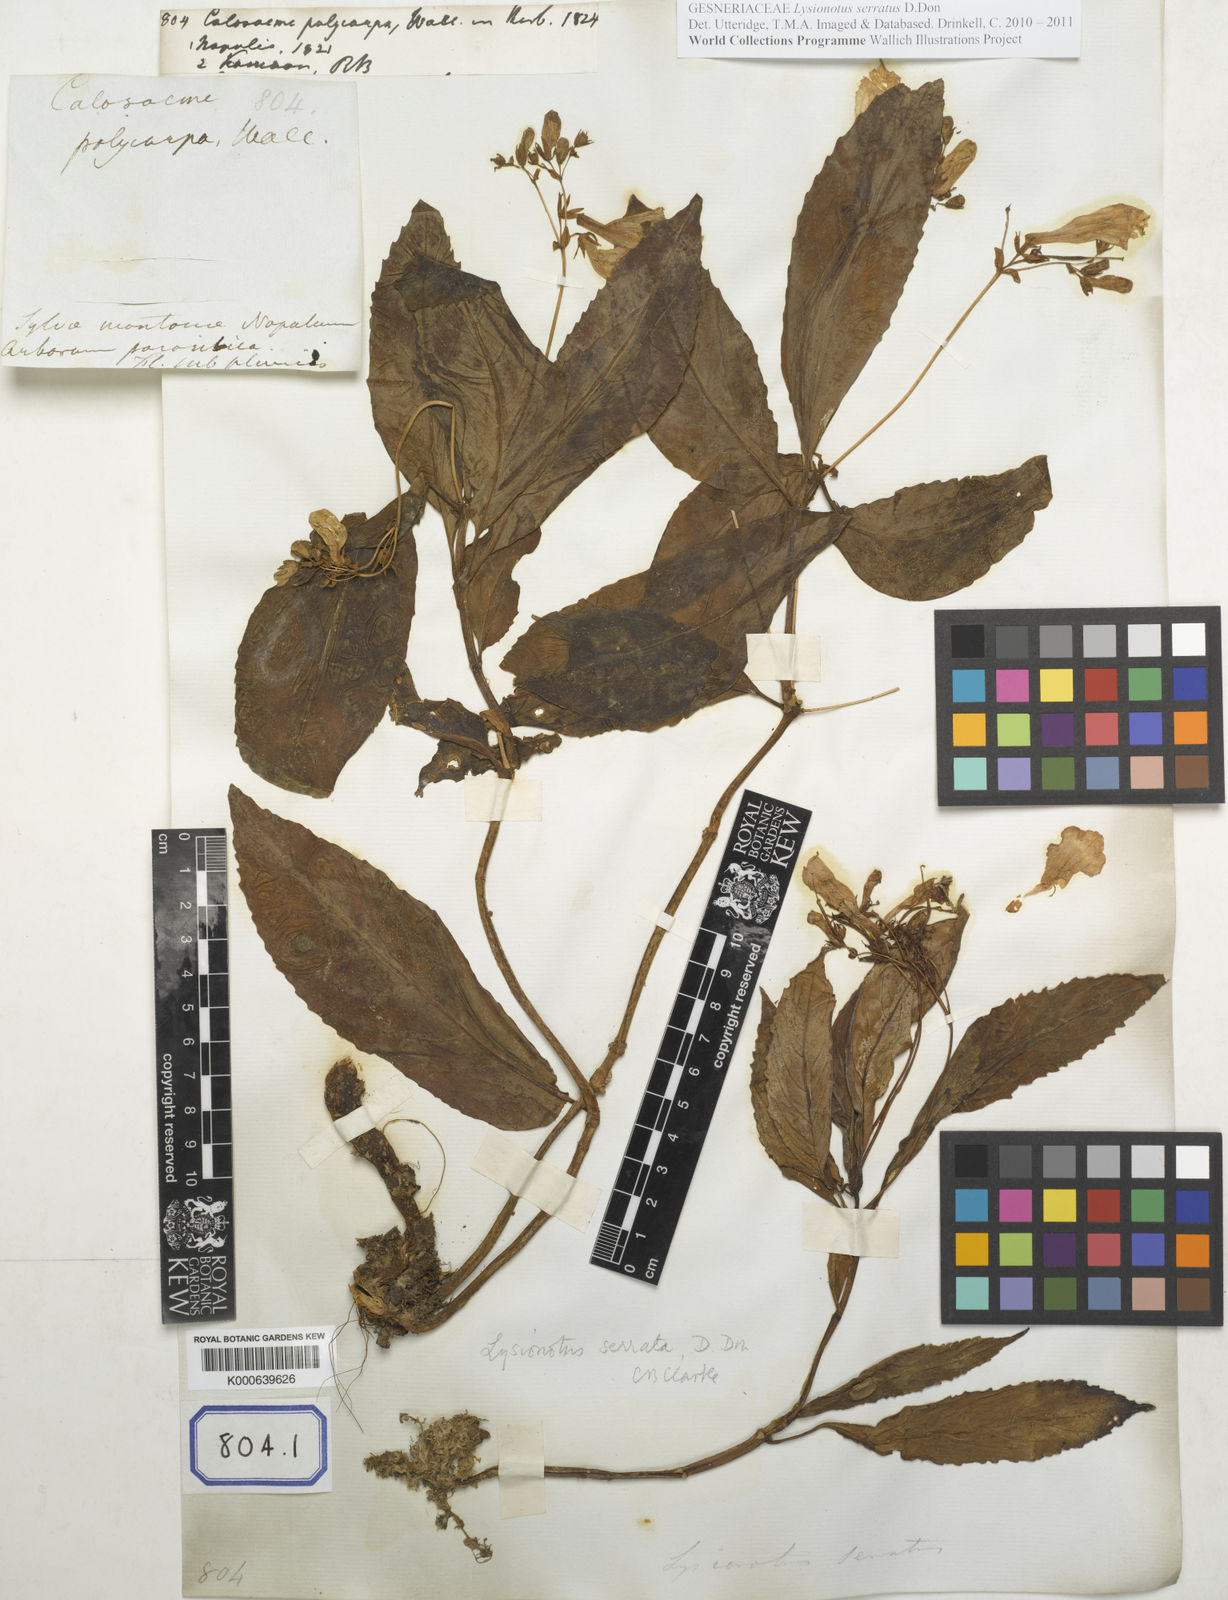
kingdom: Plantae
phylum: Tracheophyta
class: Magnoliopsida
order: Lamiales
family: Gesneriaceae
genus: Lysionotus
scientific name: Lysionotus serratus
